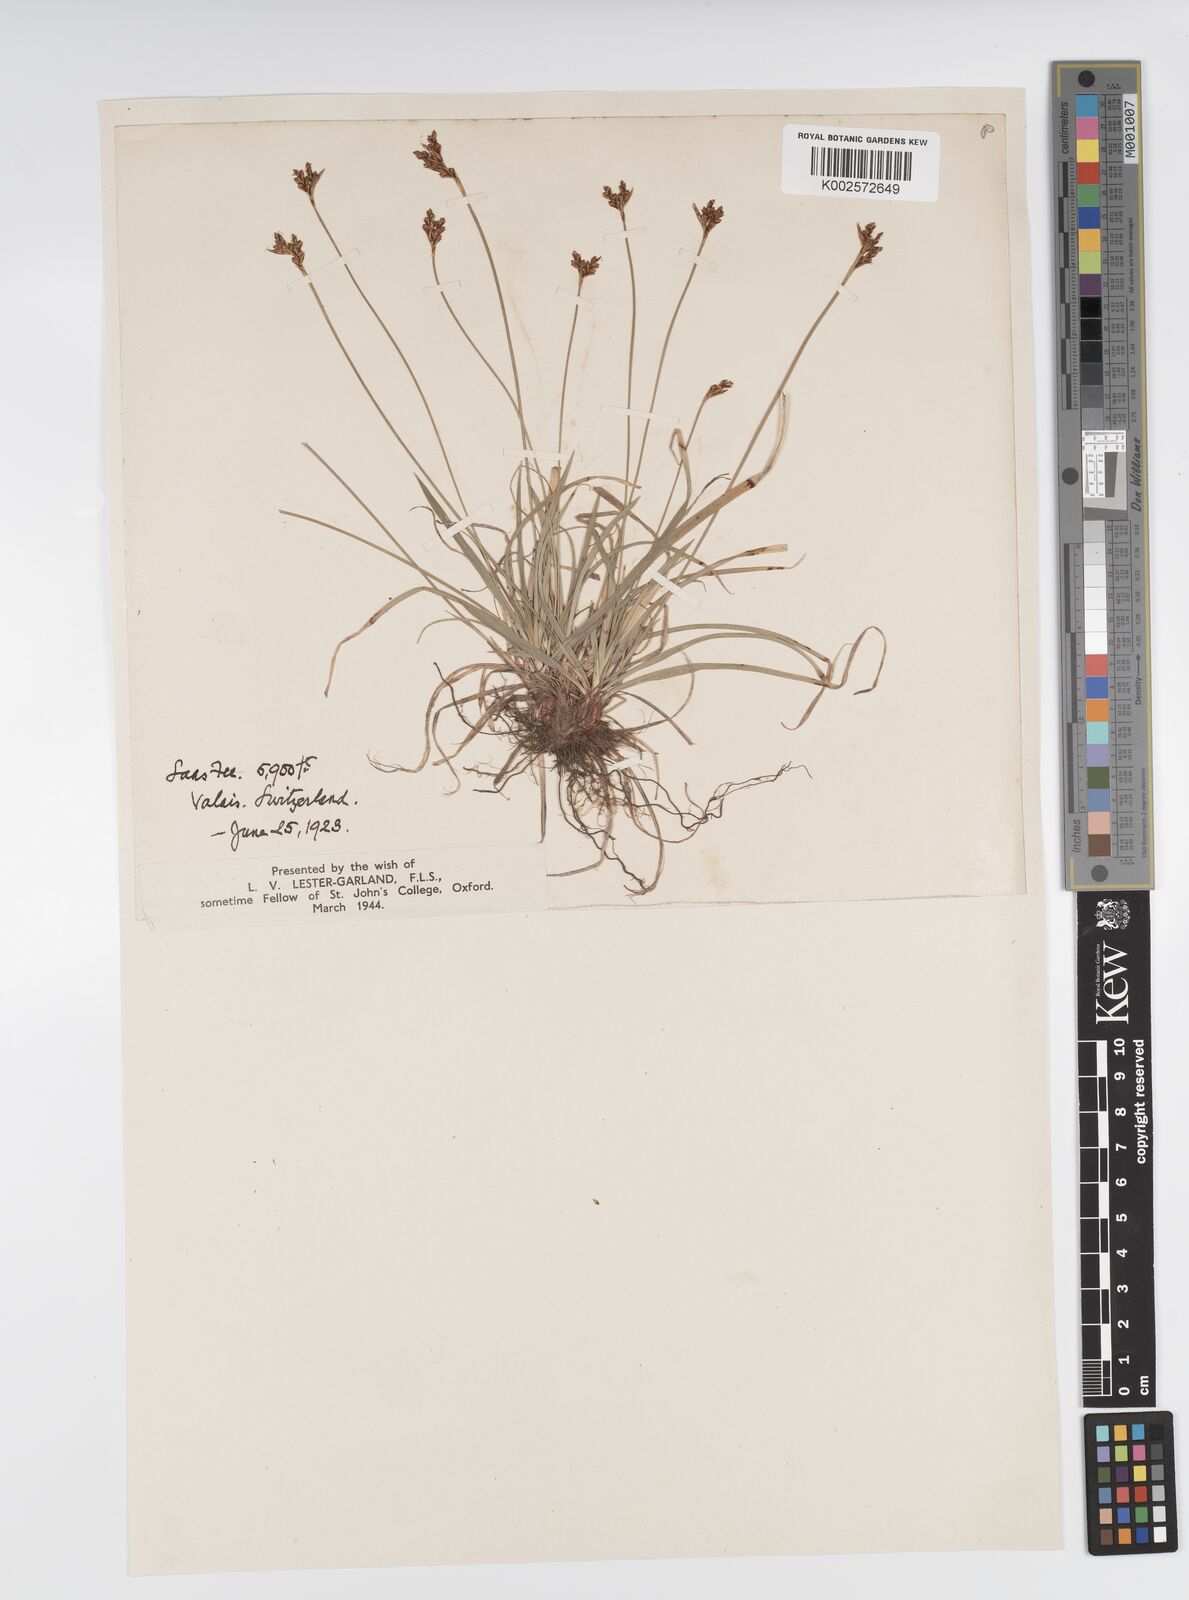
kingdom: Plantae
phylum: Tracheophyta
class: Liliopsida
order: Poales
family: Cyperaceae
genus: Carex
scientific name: Carex ornithopoda
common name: Bird's-foot sedge
